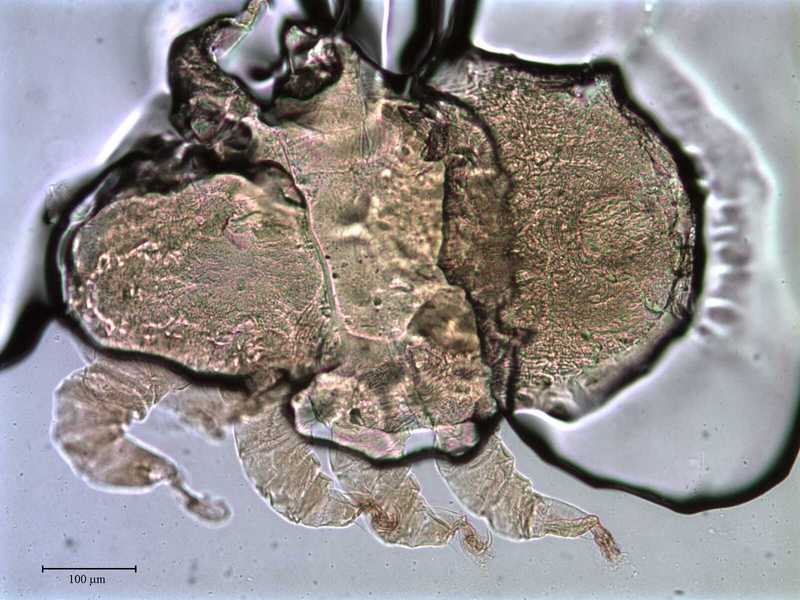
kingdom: Animalia
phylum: Arthropoda
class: Arachnida
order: Mesostigmata
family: Rhinonyssidae
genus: Sternostoma
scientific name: Sternostoma technaui
